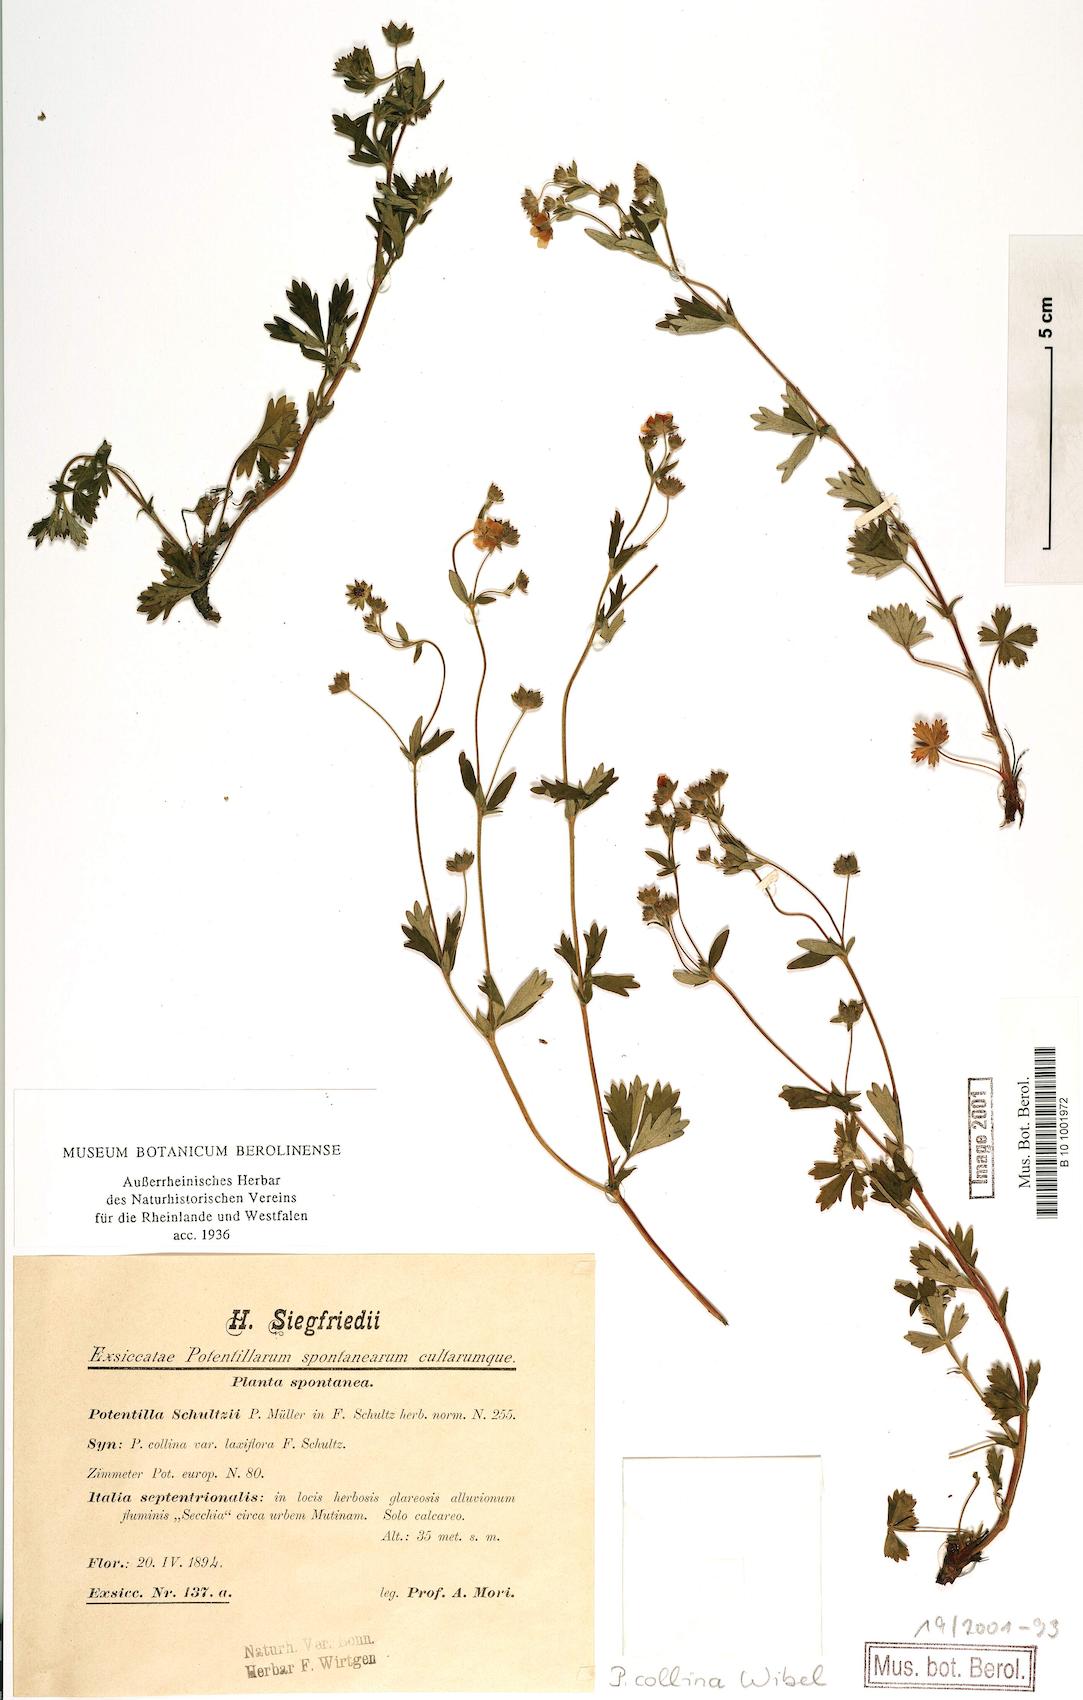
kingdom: Plantae
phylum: Tracheophyta
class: Magnoliopsida
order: Rosales
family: Rosaceae
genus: Potentilla
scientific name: Potentilla collina
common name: Palmleaf cinquefoil
